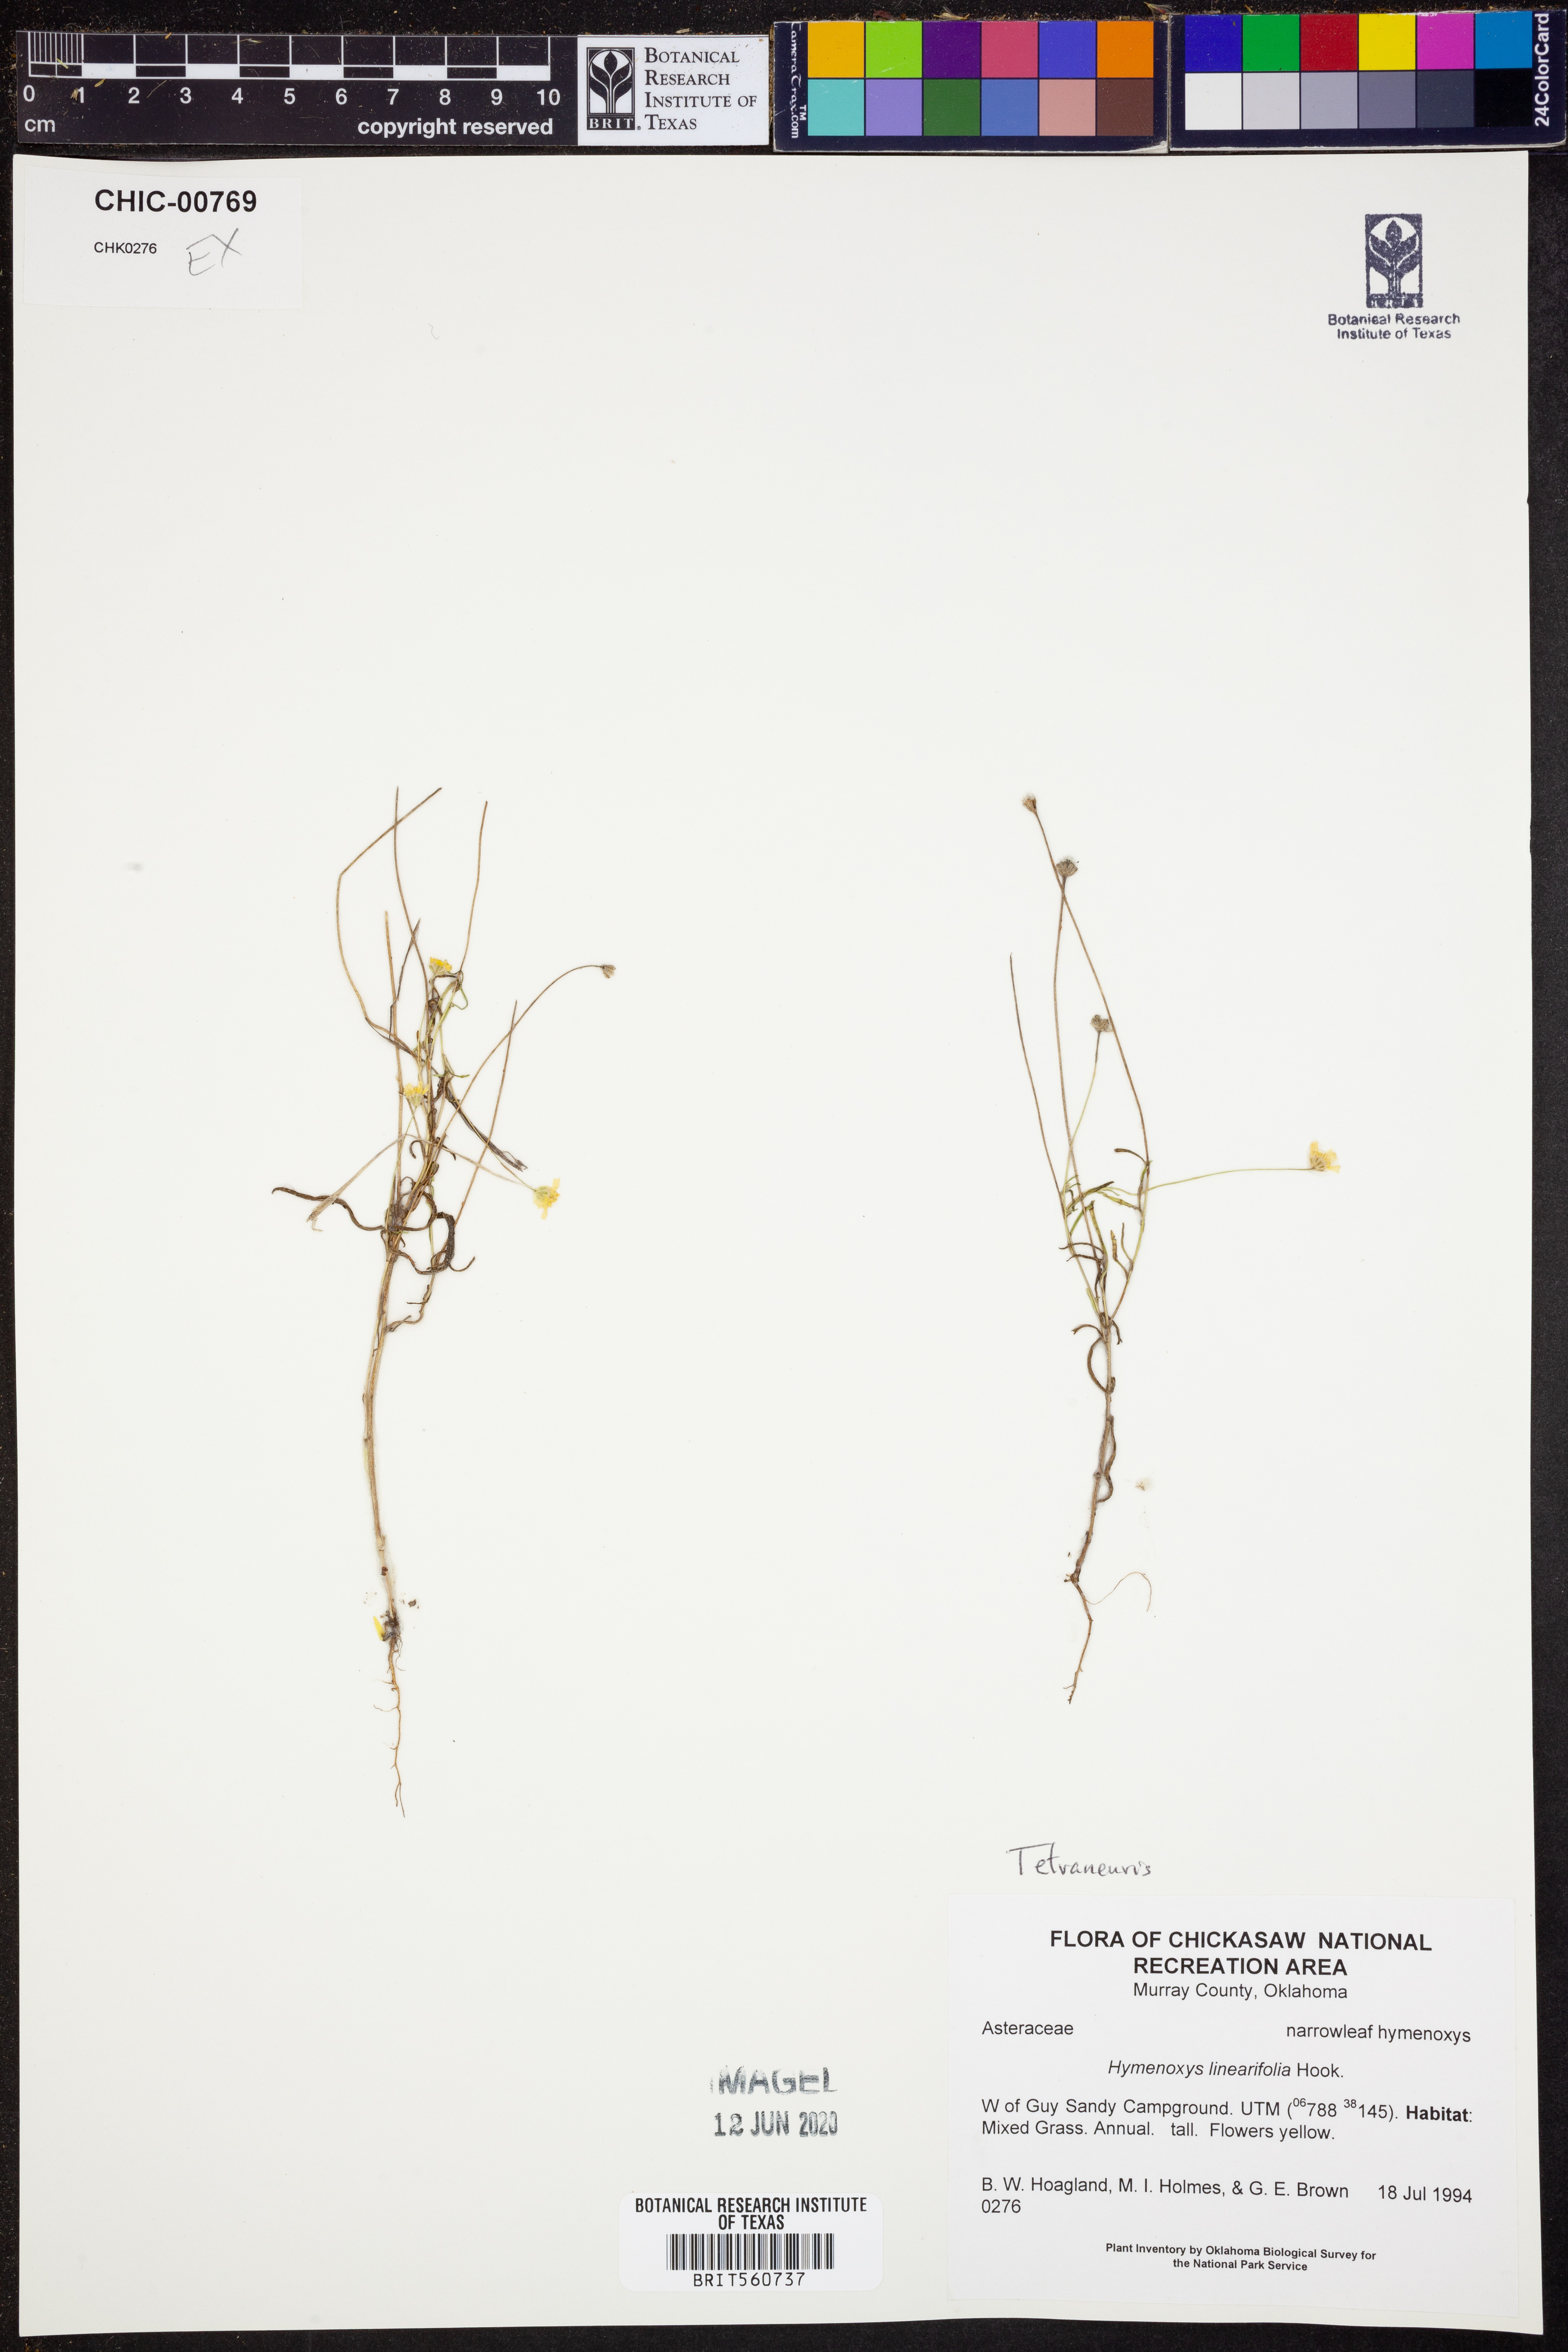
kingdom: Plantae
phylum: Tracheophyta
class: Magnoliopsida
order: Asterales
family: Asteraceae
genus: Tetraneuris
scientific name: Tetraneuris linearifolia
